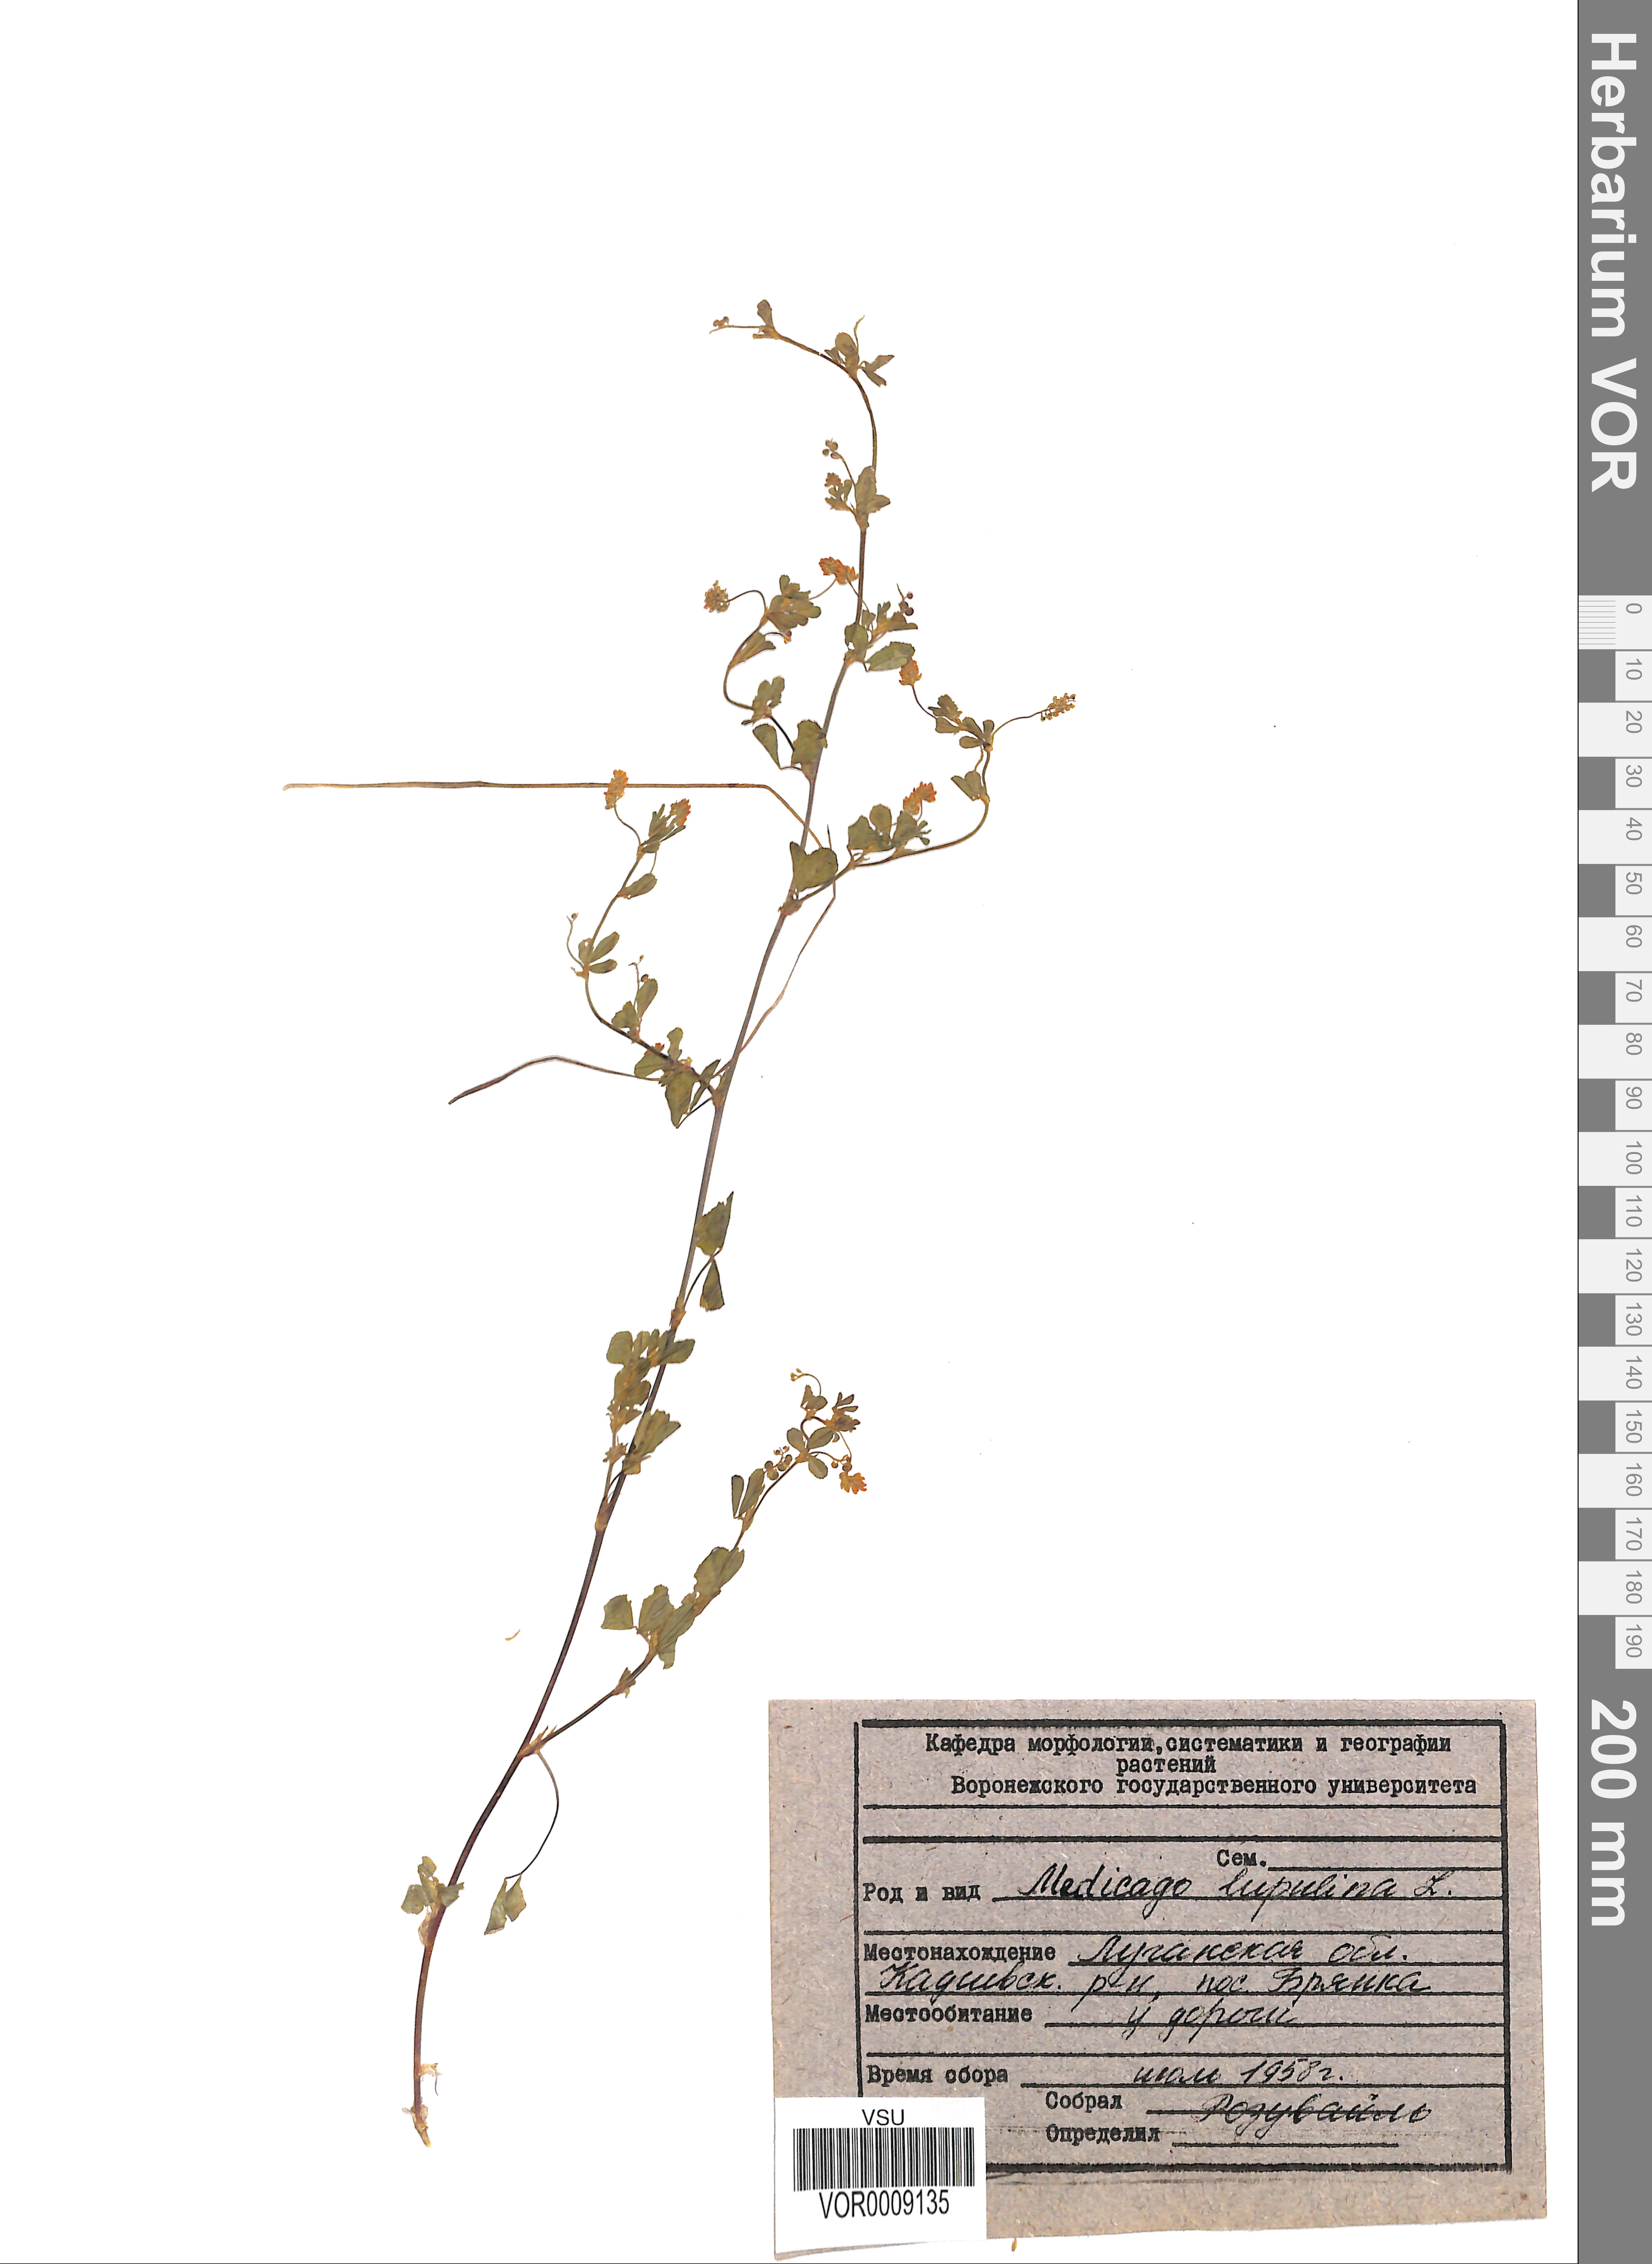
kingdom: Plantae
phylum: Tracheophyta
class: Magnoliopsida
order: Fabales
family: Fabaceae
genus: Medicago
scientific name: Medicago lupulina
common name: Black medick
